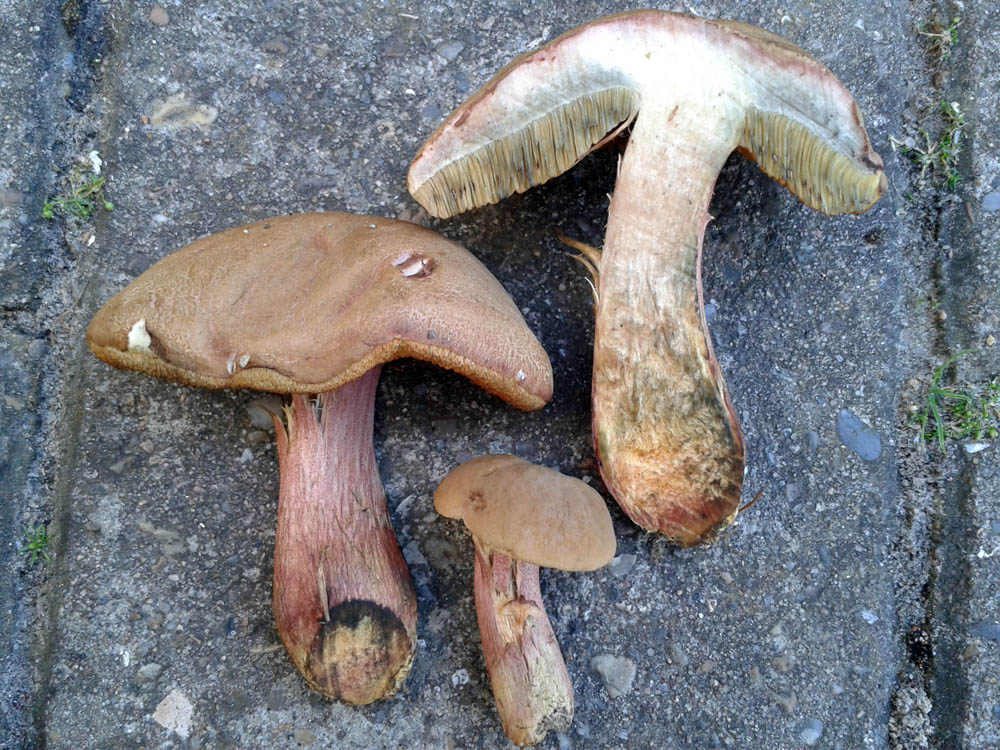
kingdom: Fungi
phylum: Basidiomycota
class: Agaricomycetes
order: Boletales
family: Boletaceae
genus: Hortiboletus
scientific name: Hortiboletus bubalinus
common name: aurora-rørhat
